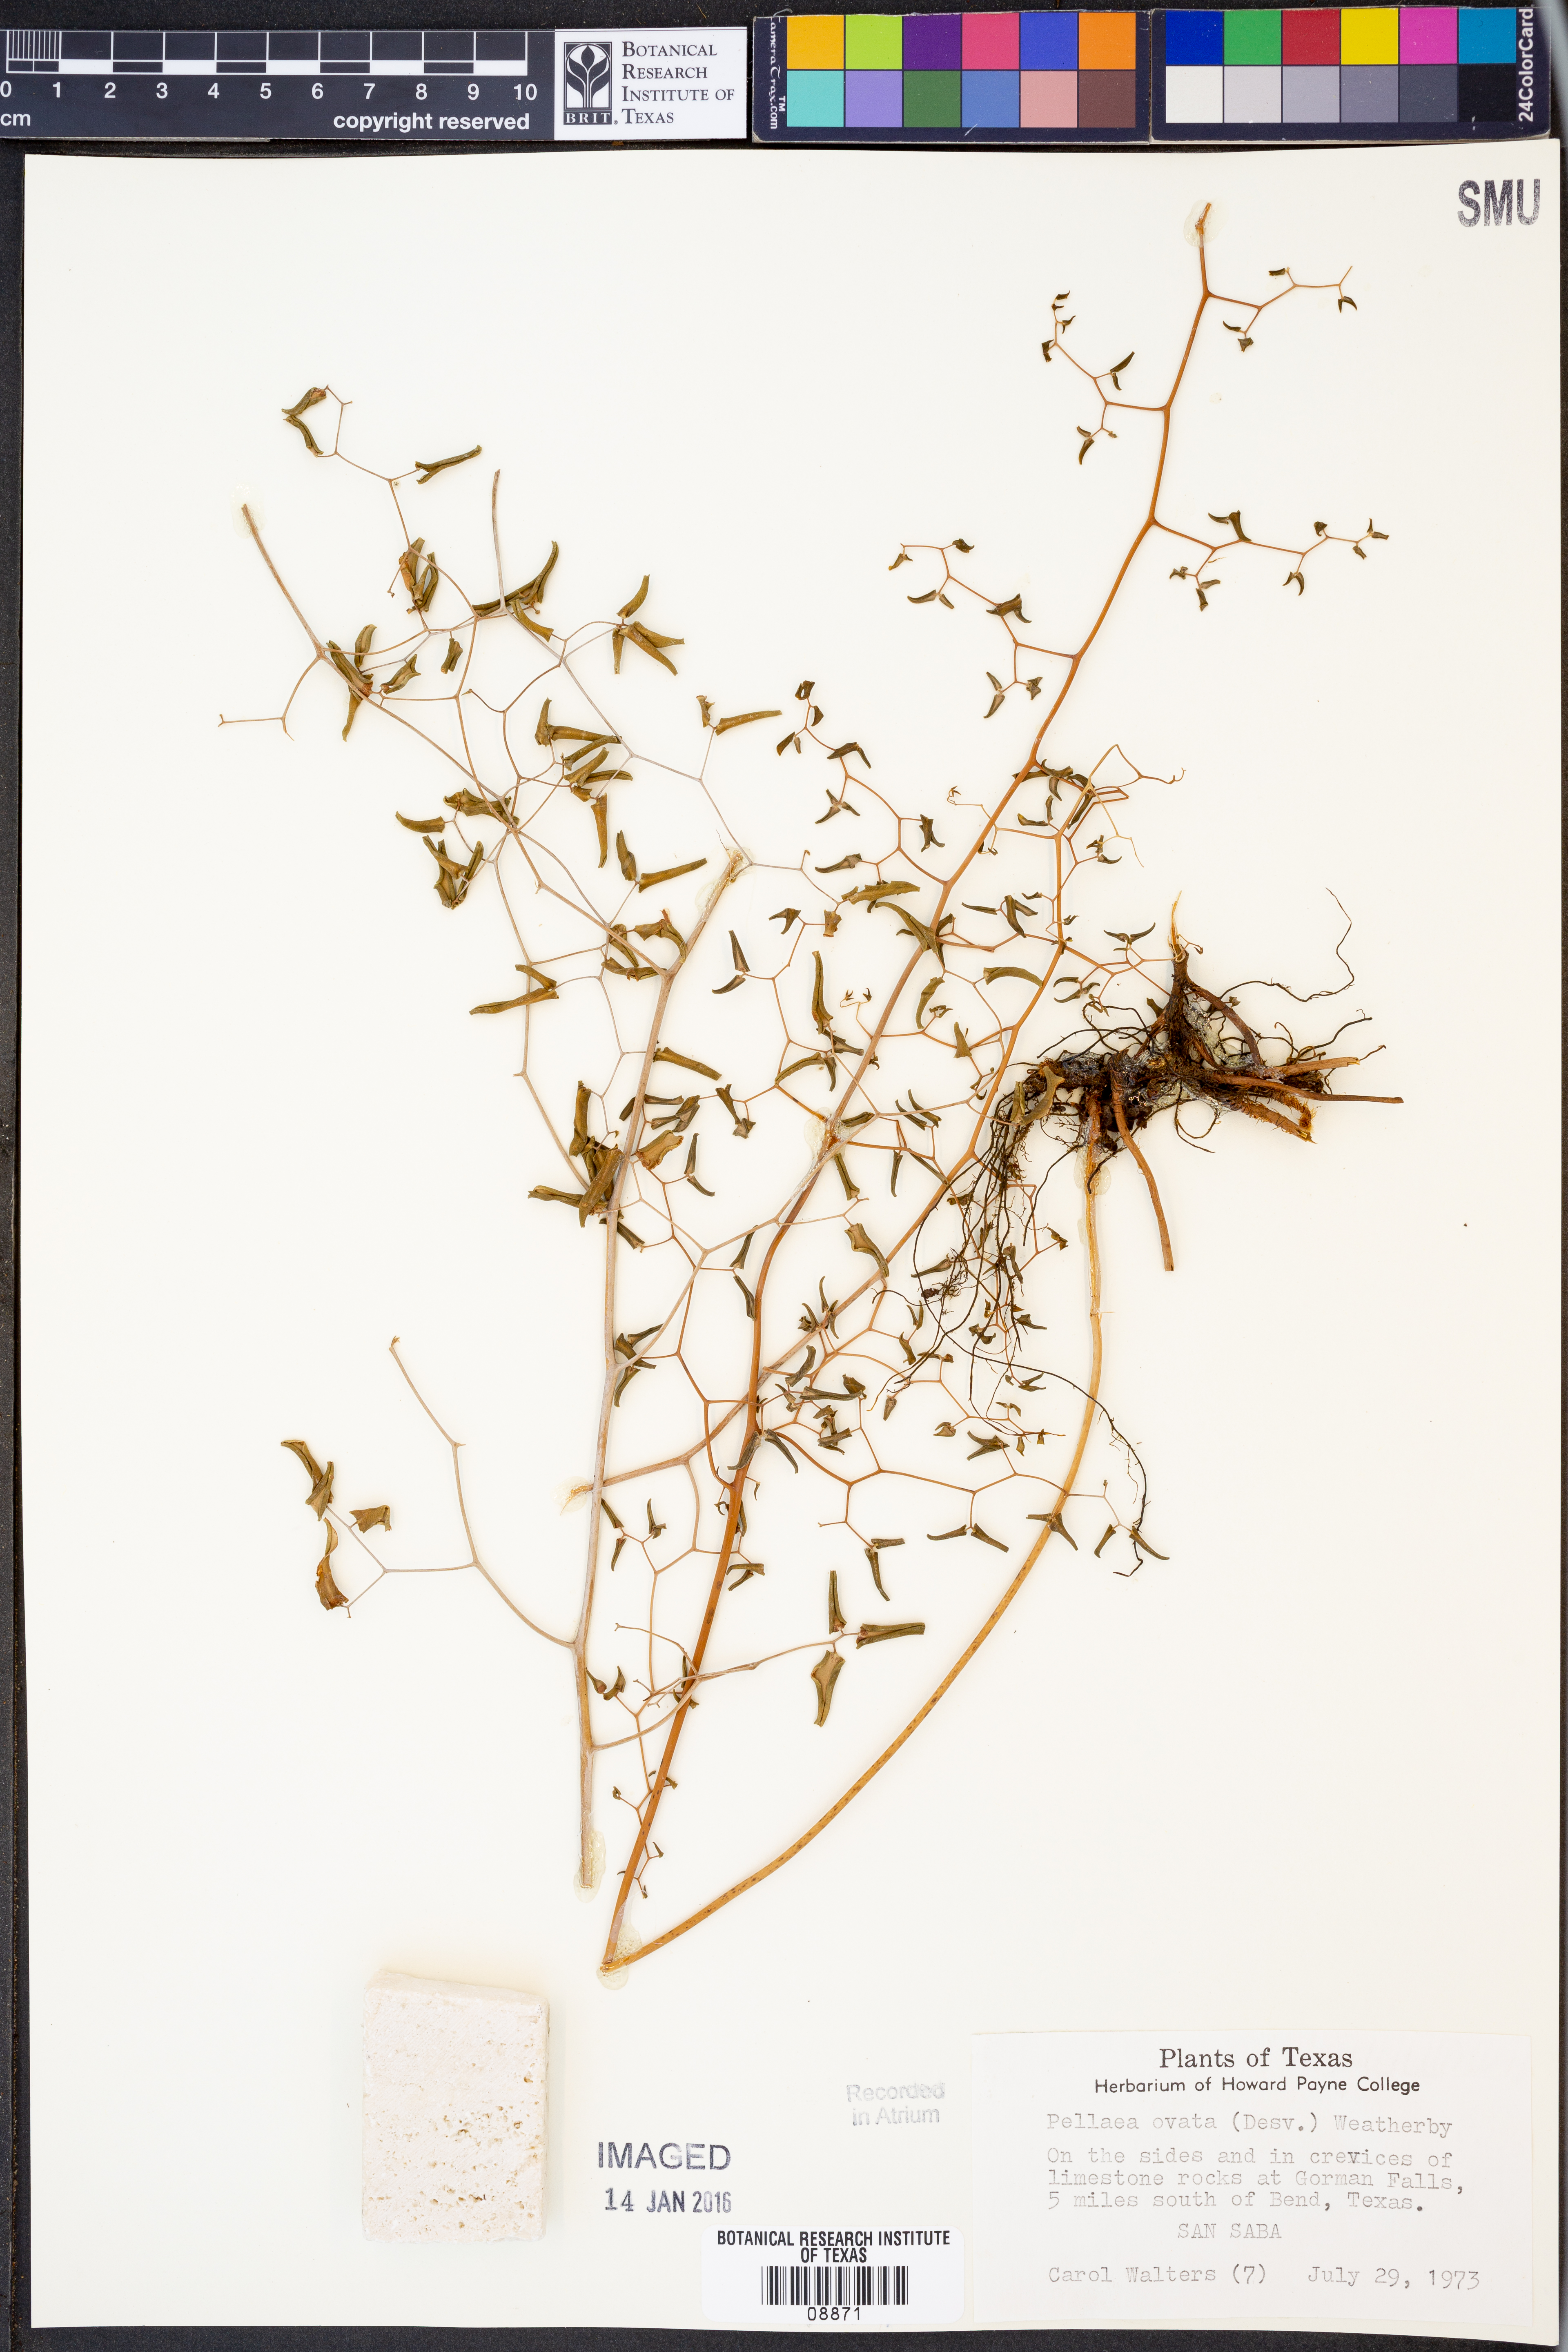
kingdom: Plantae
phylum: Tracheophyta
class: Polypodiopsida
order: Polypodiales
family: Pteridaceae
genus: Pellaea
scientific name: Pellaea ovata
